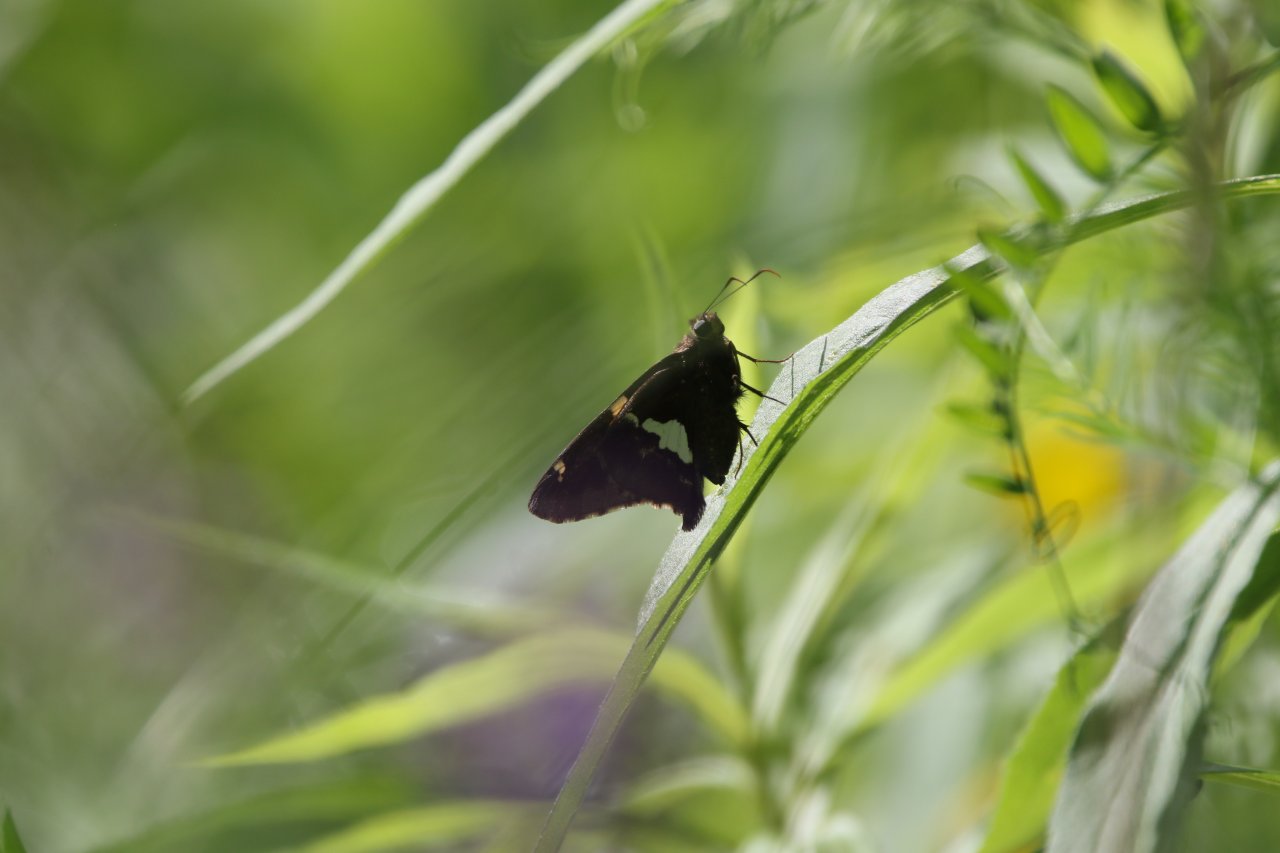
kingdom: Animalia
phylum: Arthropoda
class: Insecta
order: Lepidoptera
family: Hesperiidae
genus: Epargyreus
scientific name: Epargyreus clarus
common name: Silver-spotted Skipper
